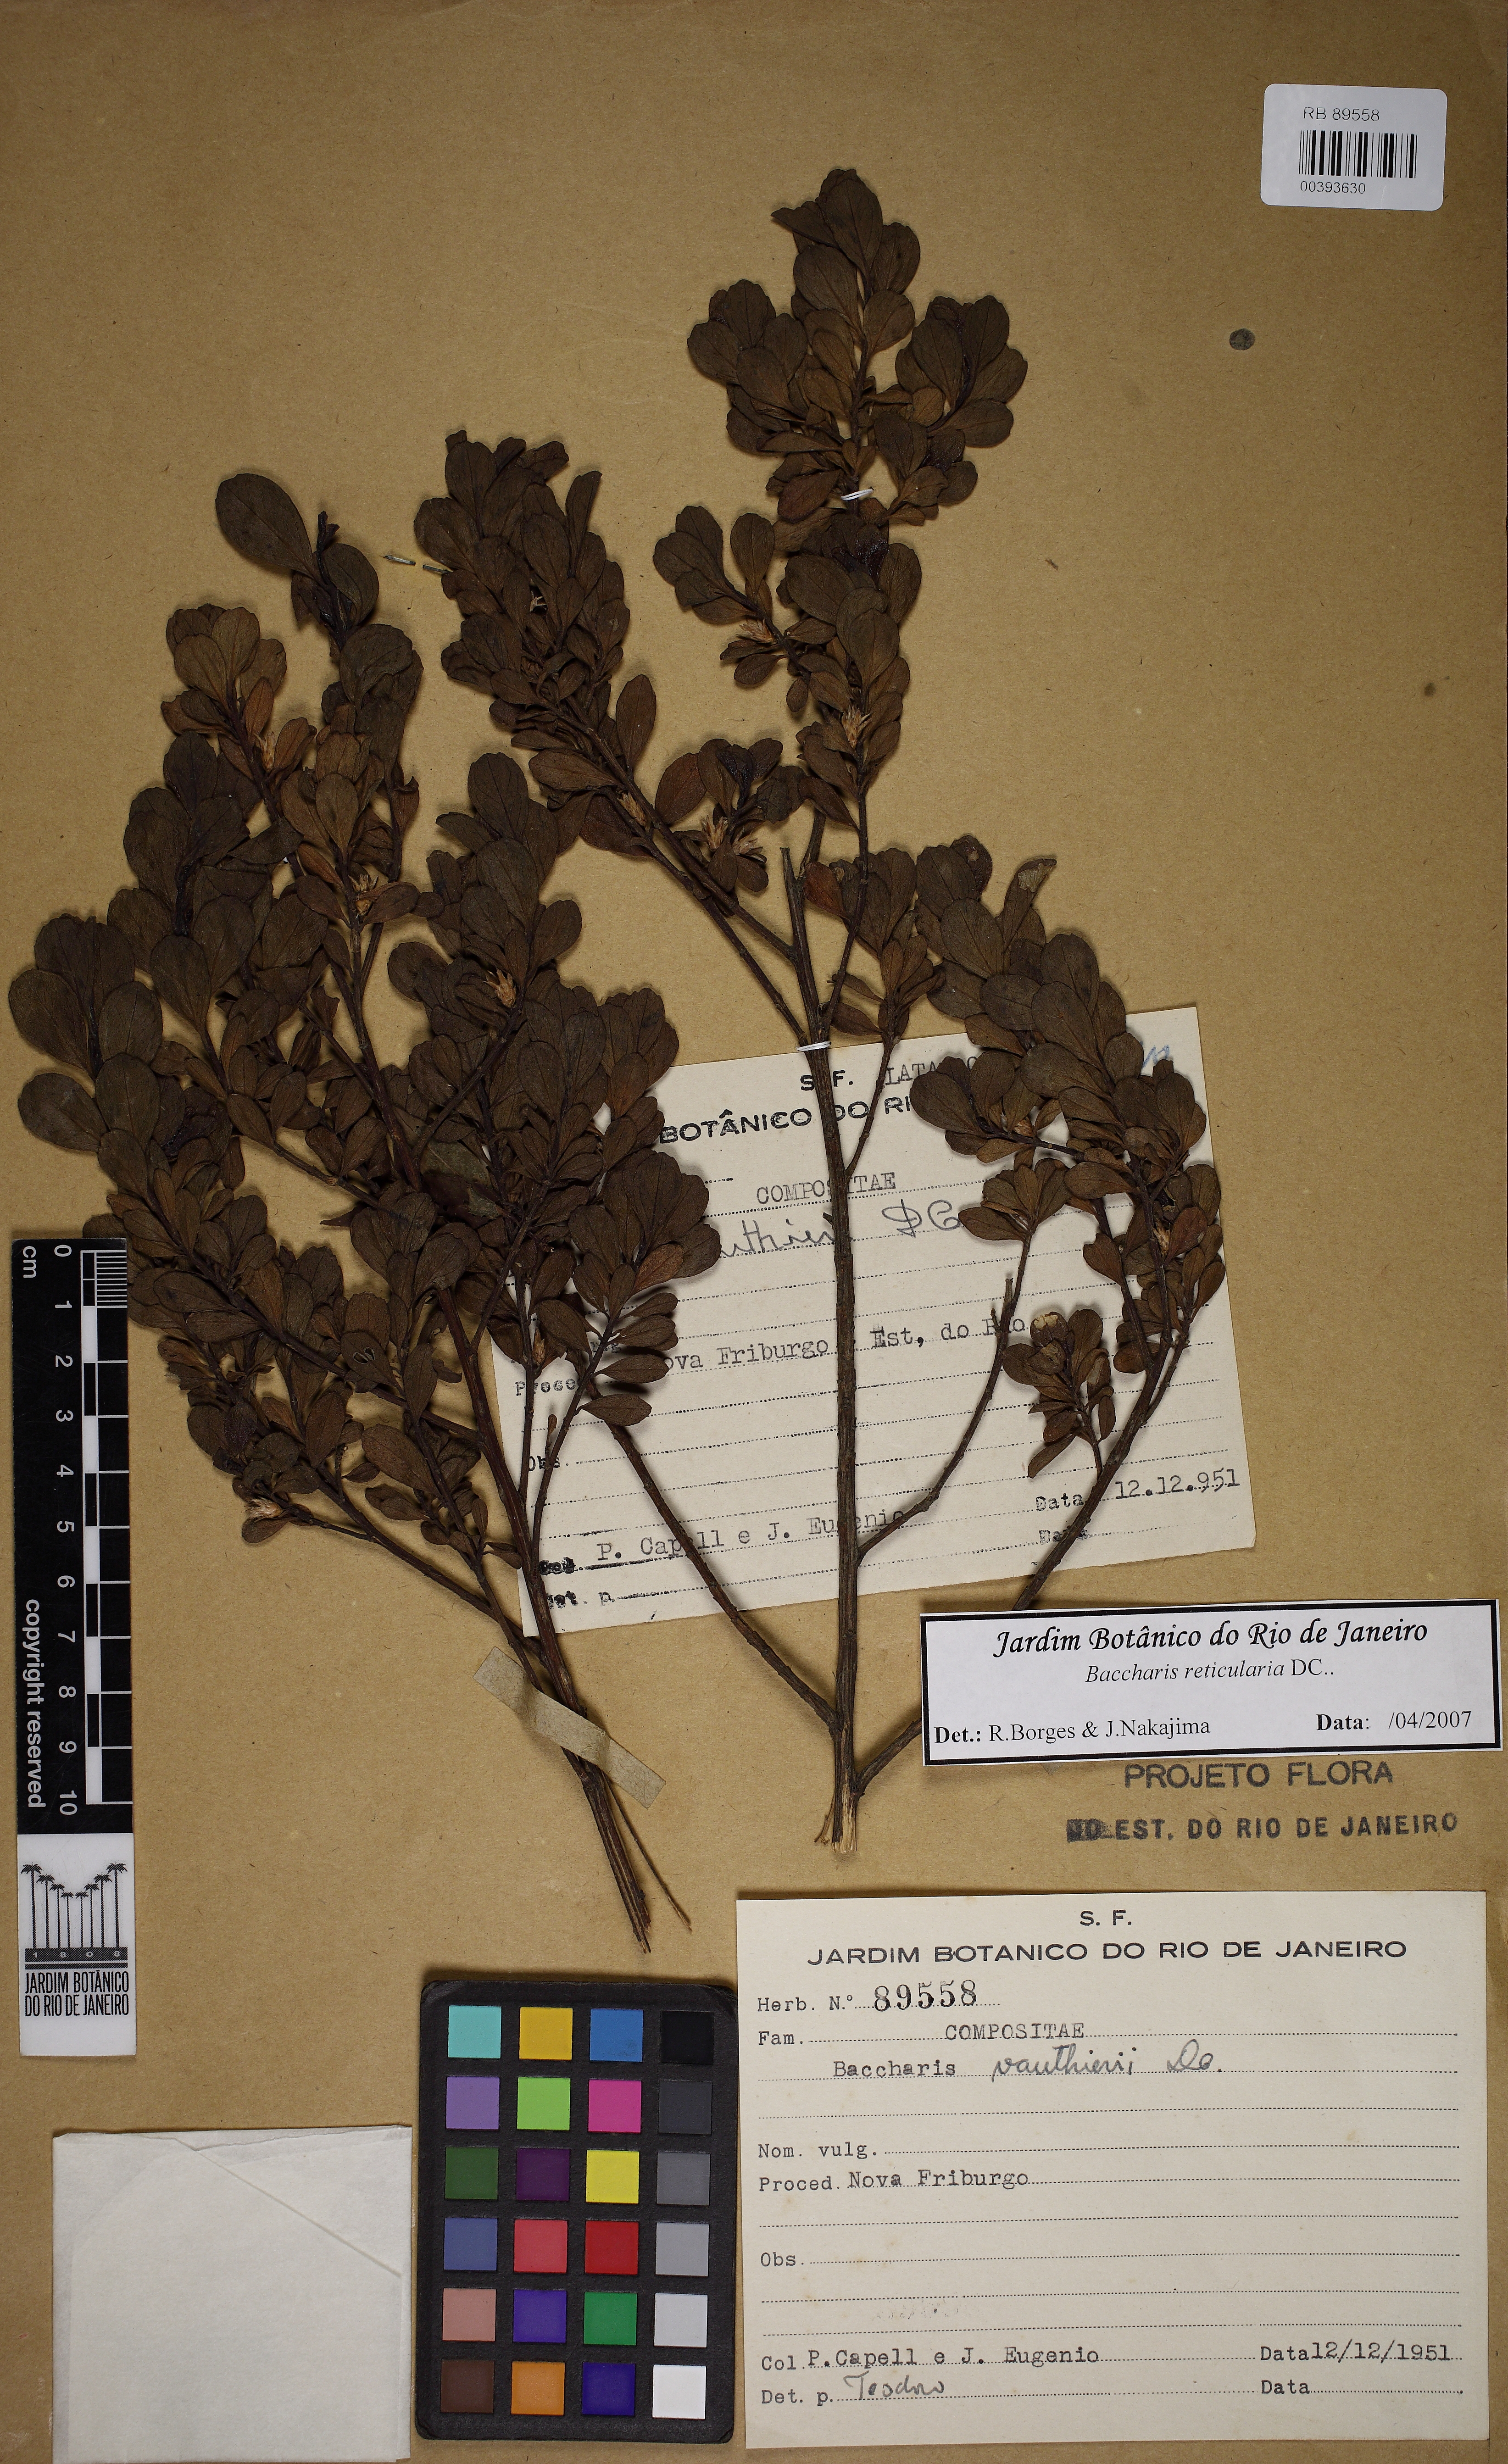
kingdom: Plantae
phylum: Tracheophyta
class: Magnoliopsida
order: Asterales
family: Asteraceae
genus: Baccharis
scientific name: Baccharis reticularia
